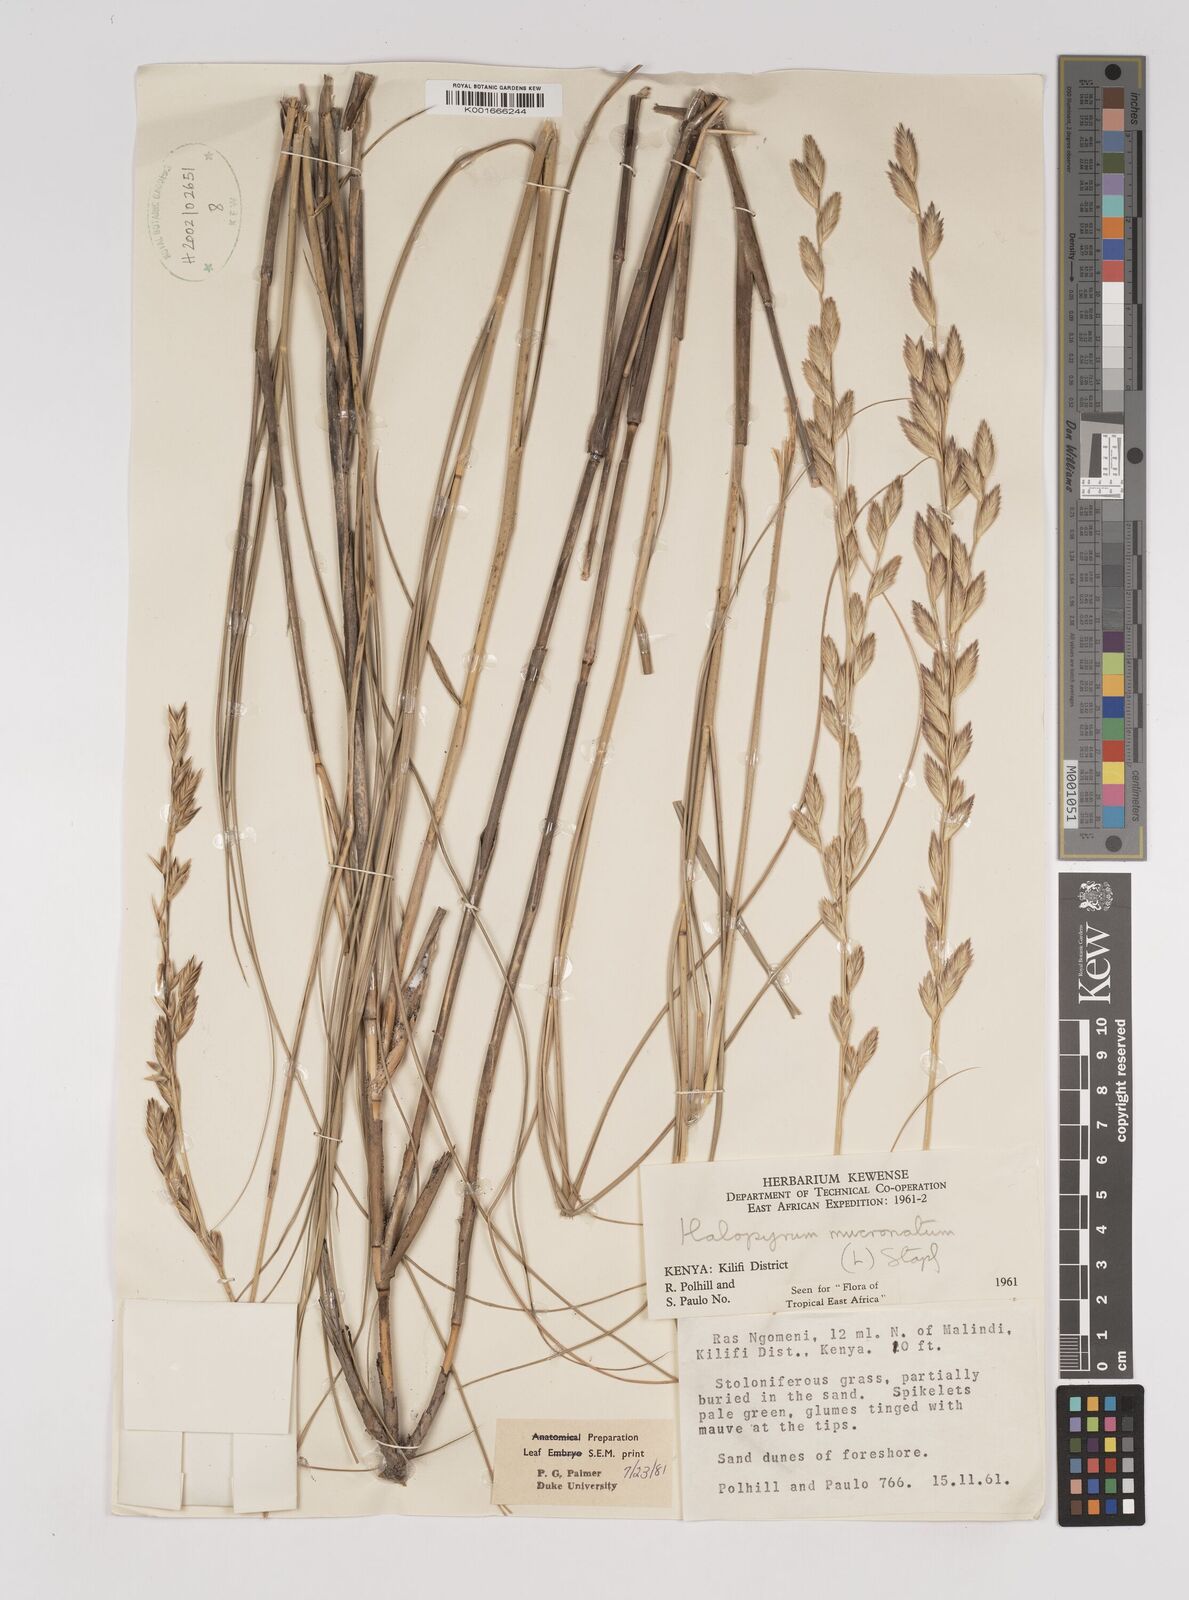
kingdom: Plantae
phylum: Tracheophyta
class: Liliopsida
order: Poales
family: Poaceae
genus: Halopyrum
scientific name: Halopyrum mucronatum
